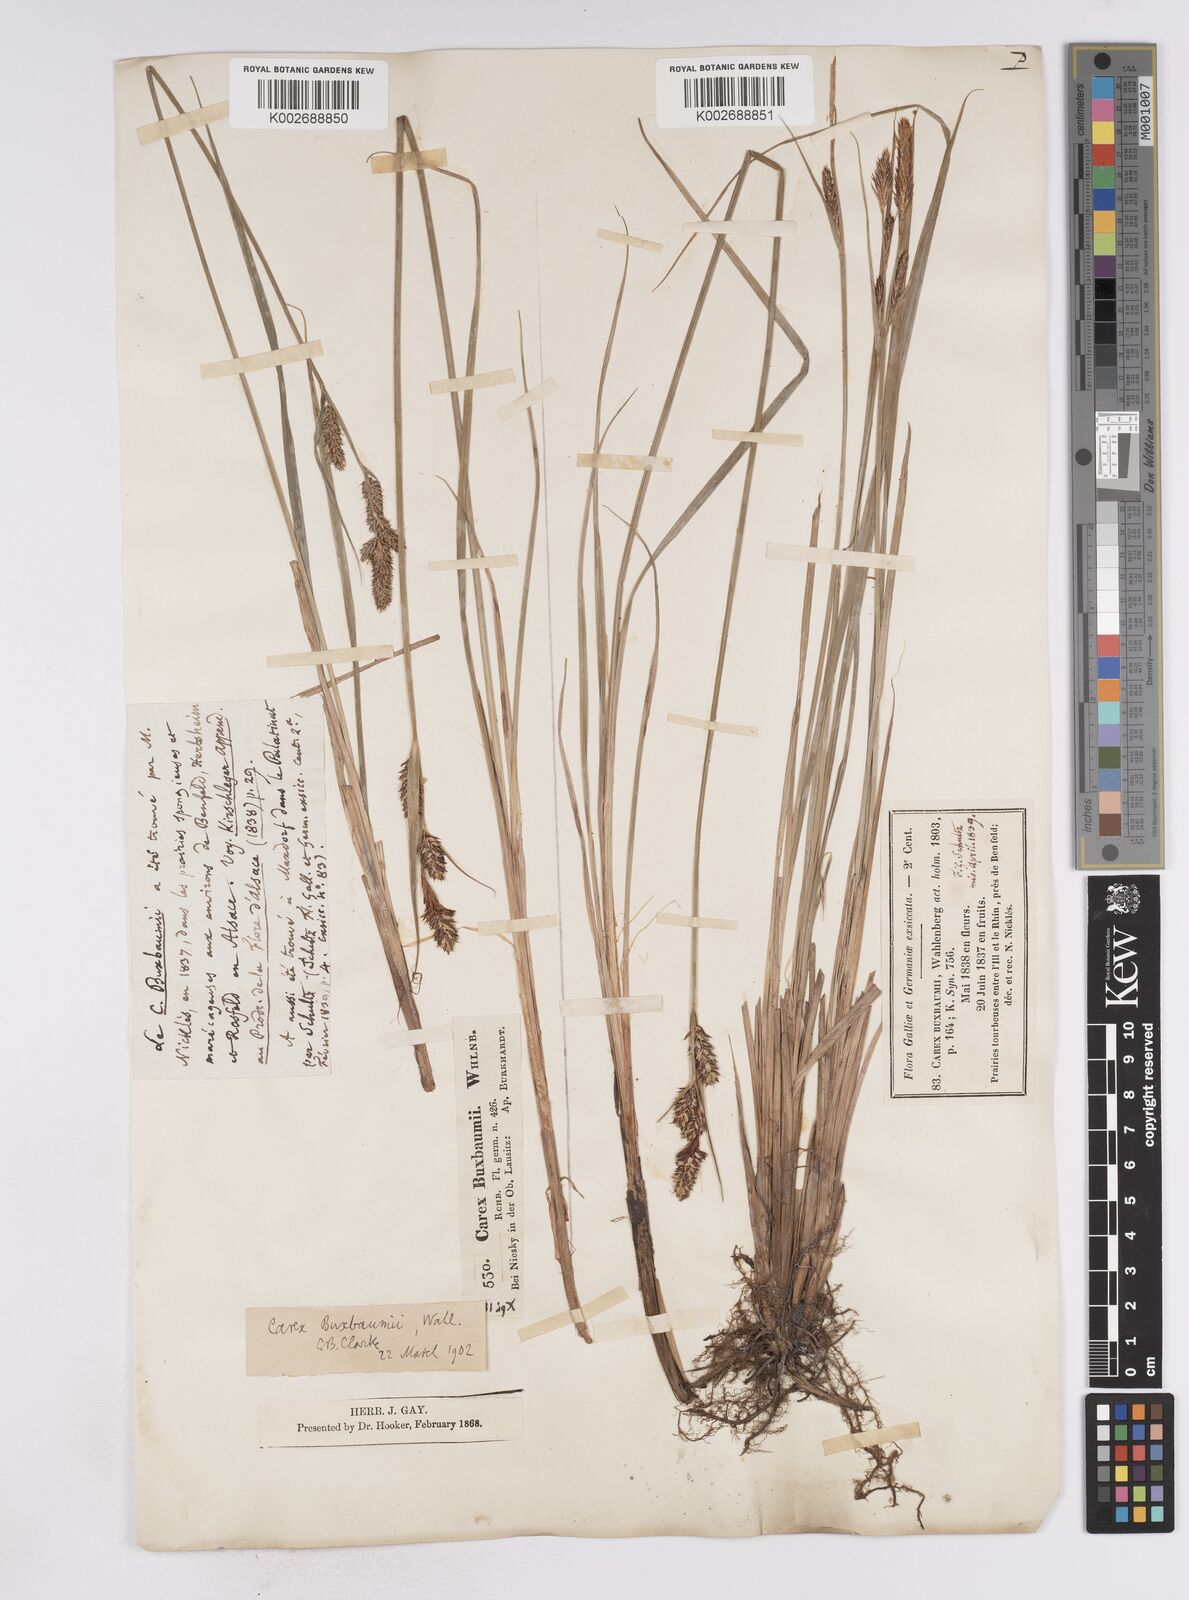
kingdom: Plantae
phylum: Tracheophyta
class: Liliopsida
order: Poales
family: Cyperaceae
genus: Carex
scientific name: Carex buxbaumii
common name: Club sedge
